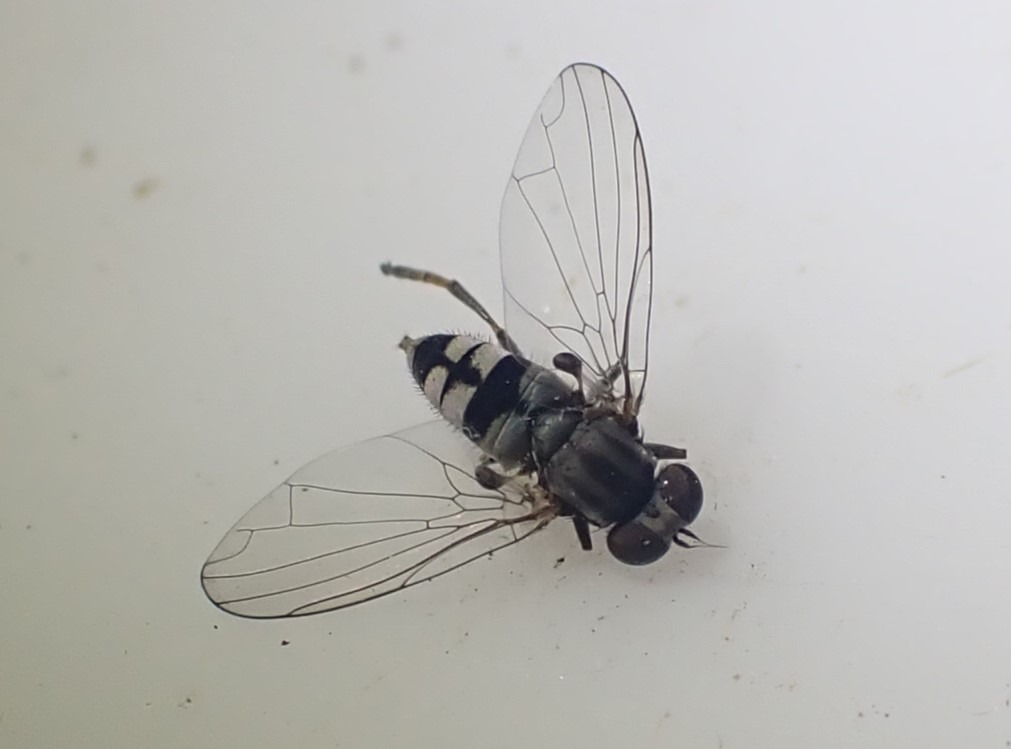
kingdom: Animalia
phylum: Arthropoda
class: Insecta
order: Diptera
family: Platypezidae
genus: Paraplatypeza
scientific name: Paraplatypeza bicincta
